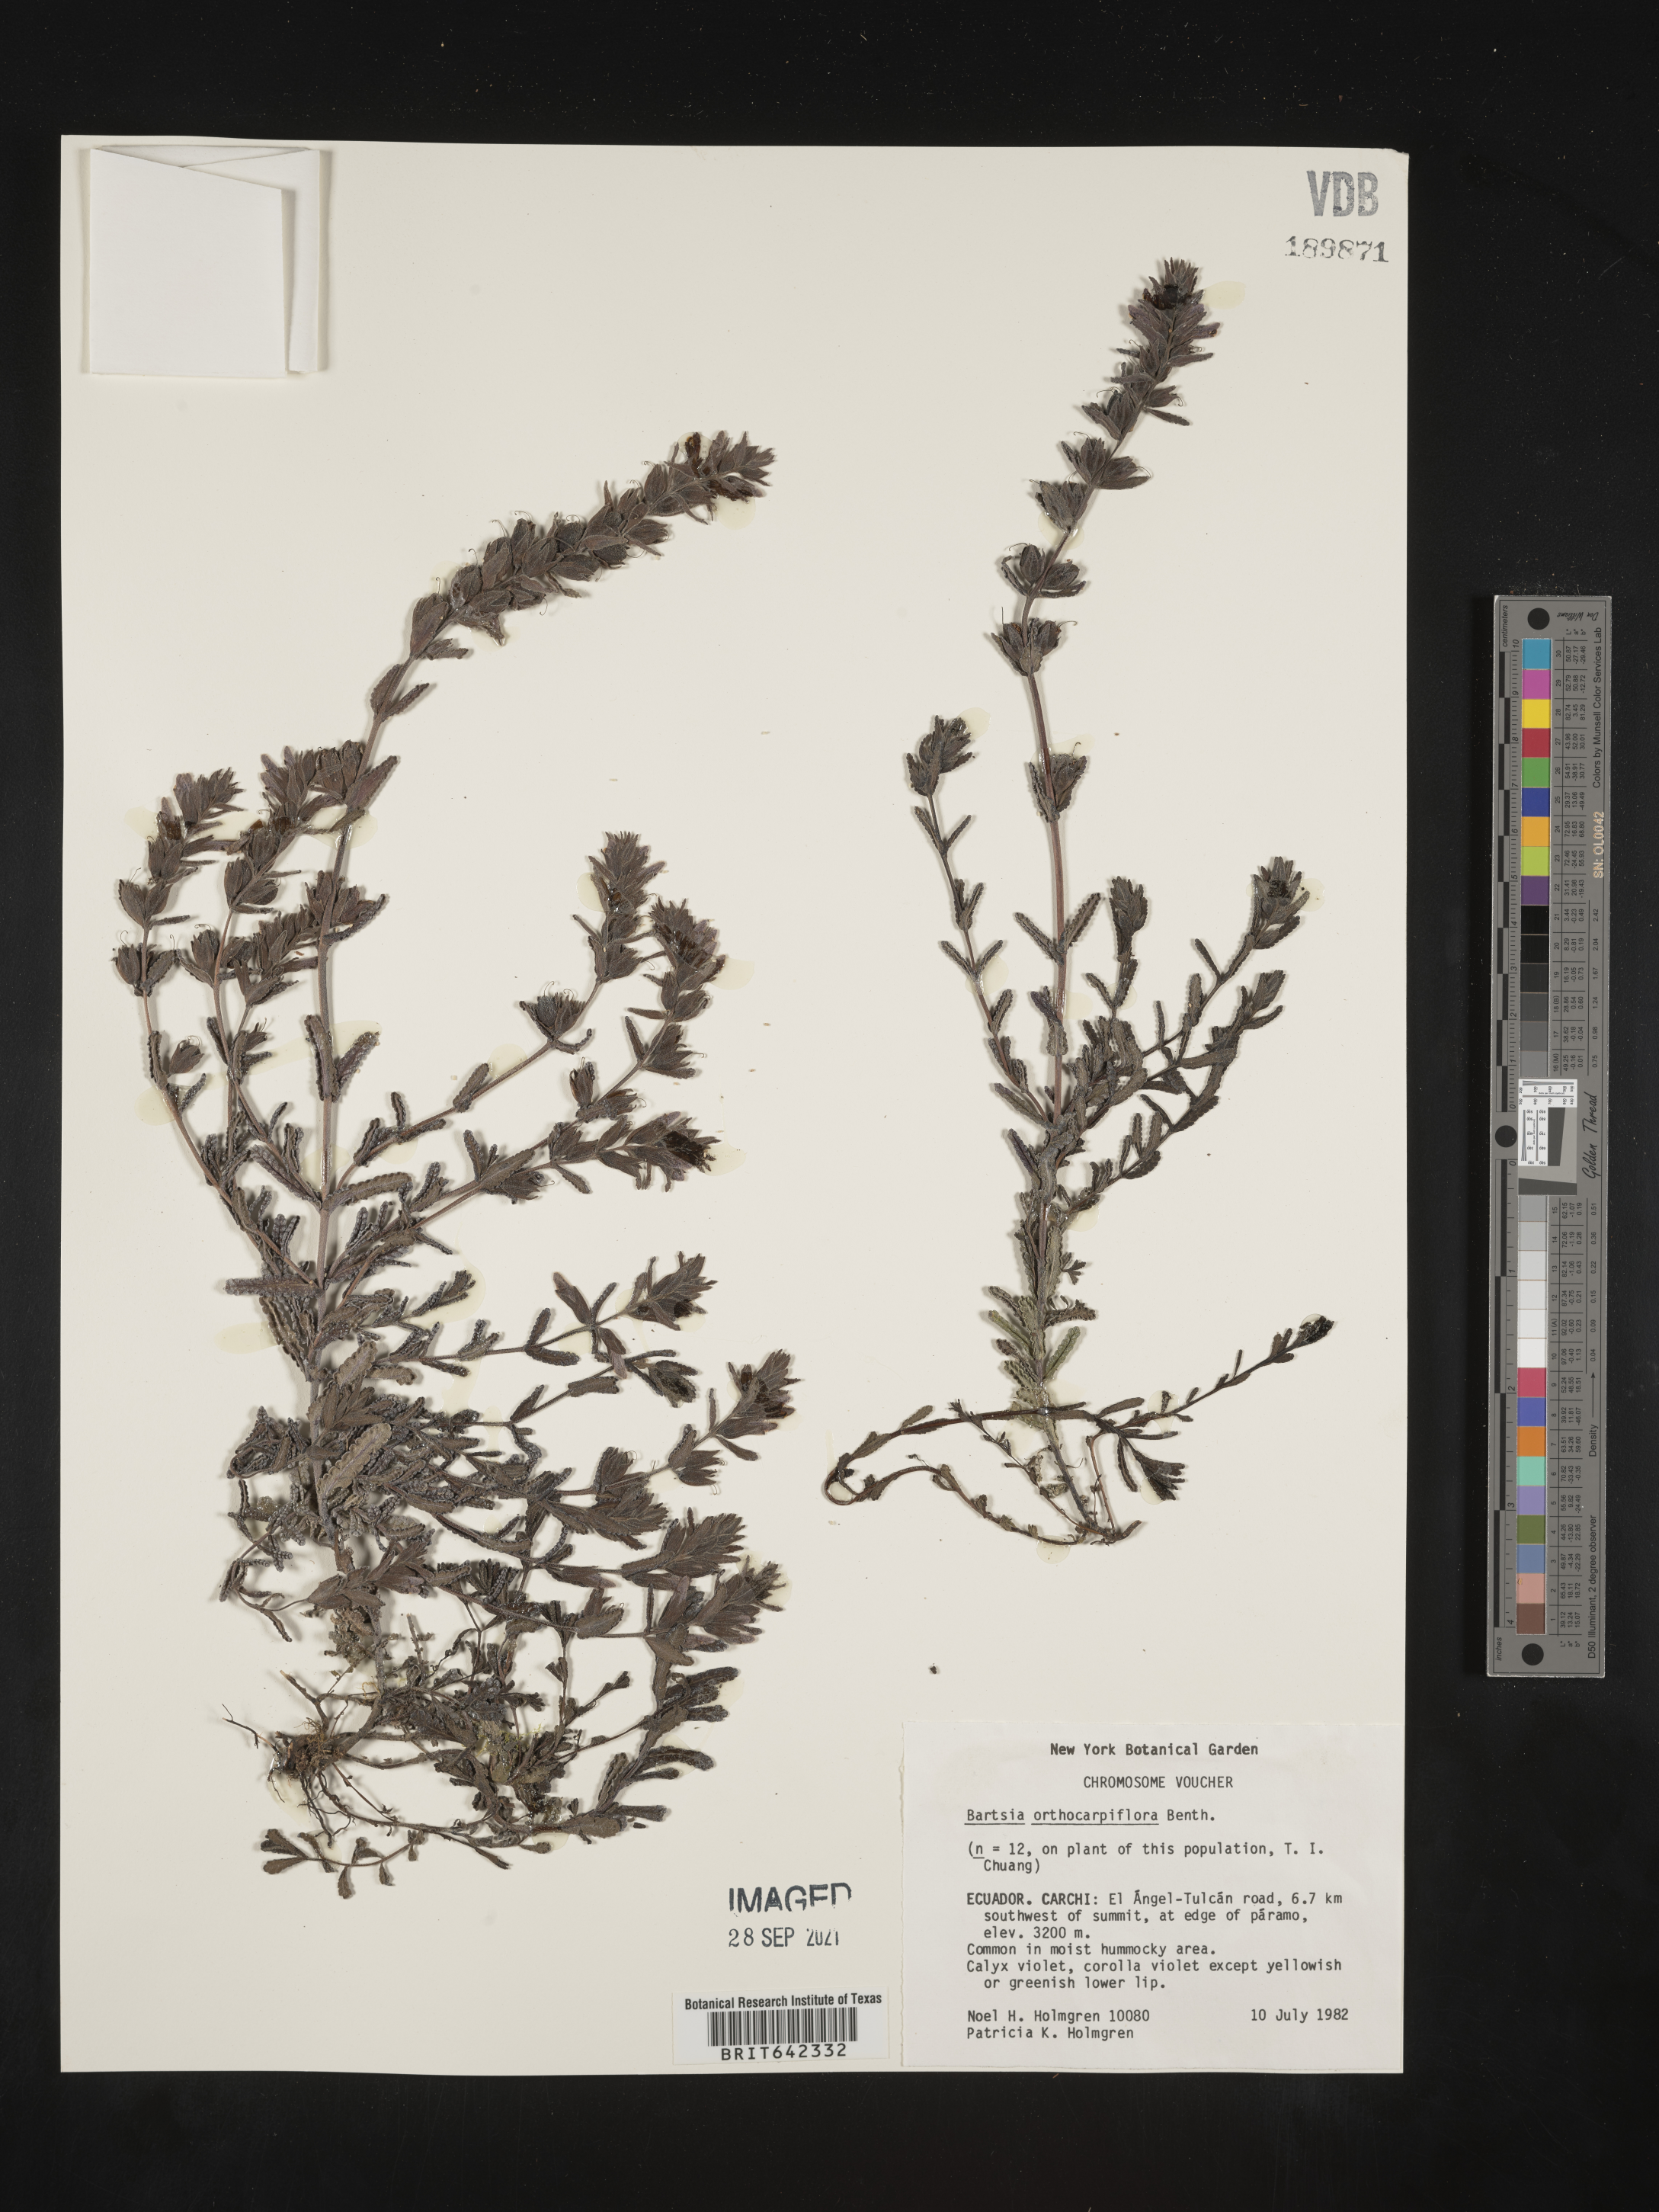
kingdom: Plantae
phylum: Tracheophyta
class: Magnoliopsida
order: Lamiales
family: Orobanchaceae
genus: Bartsia
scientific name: Bartsia
